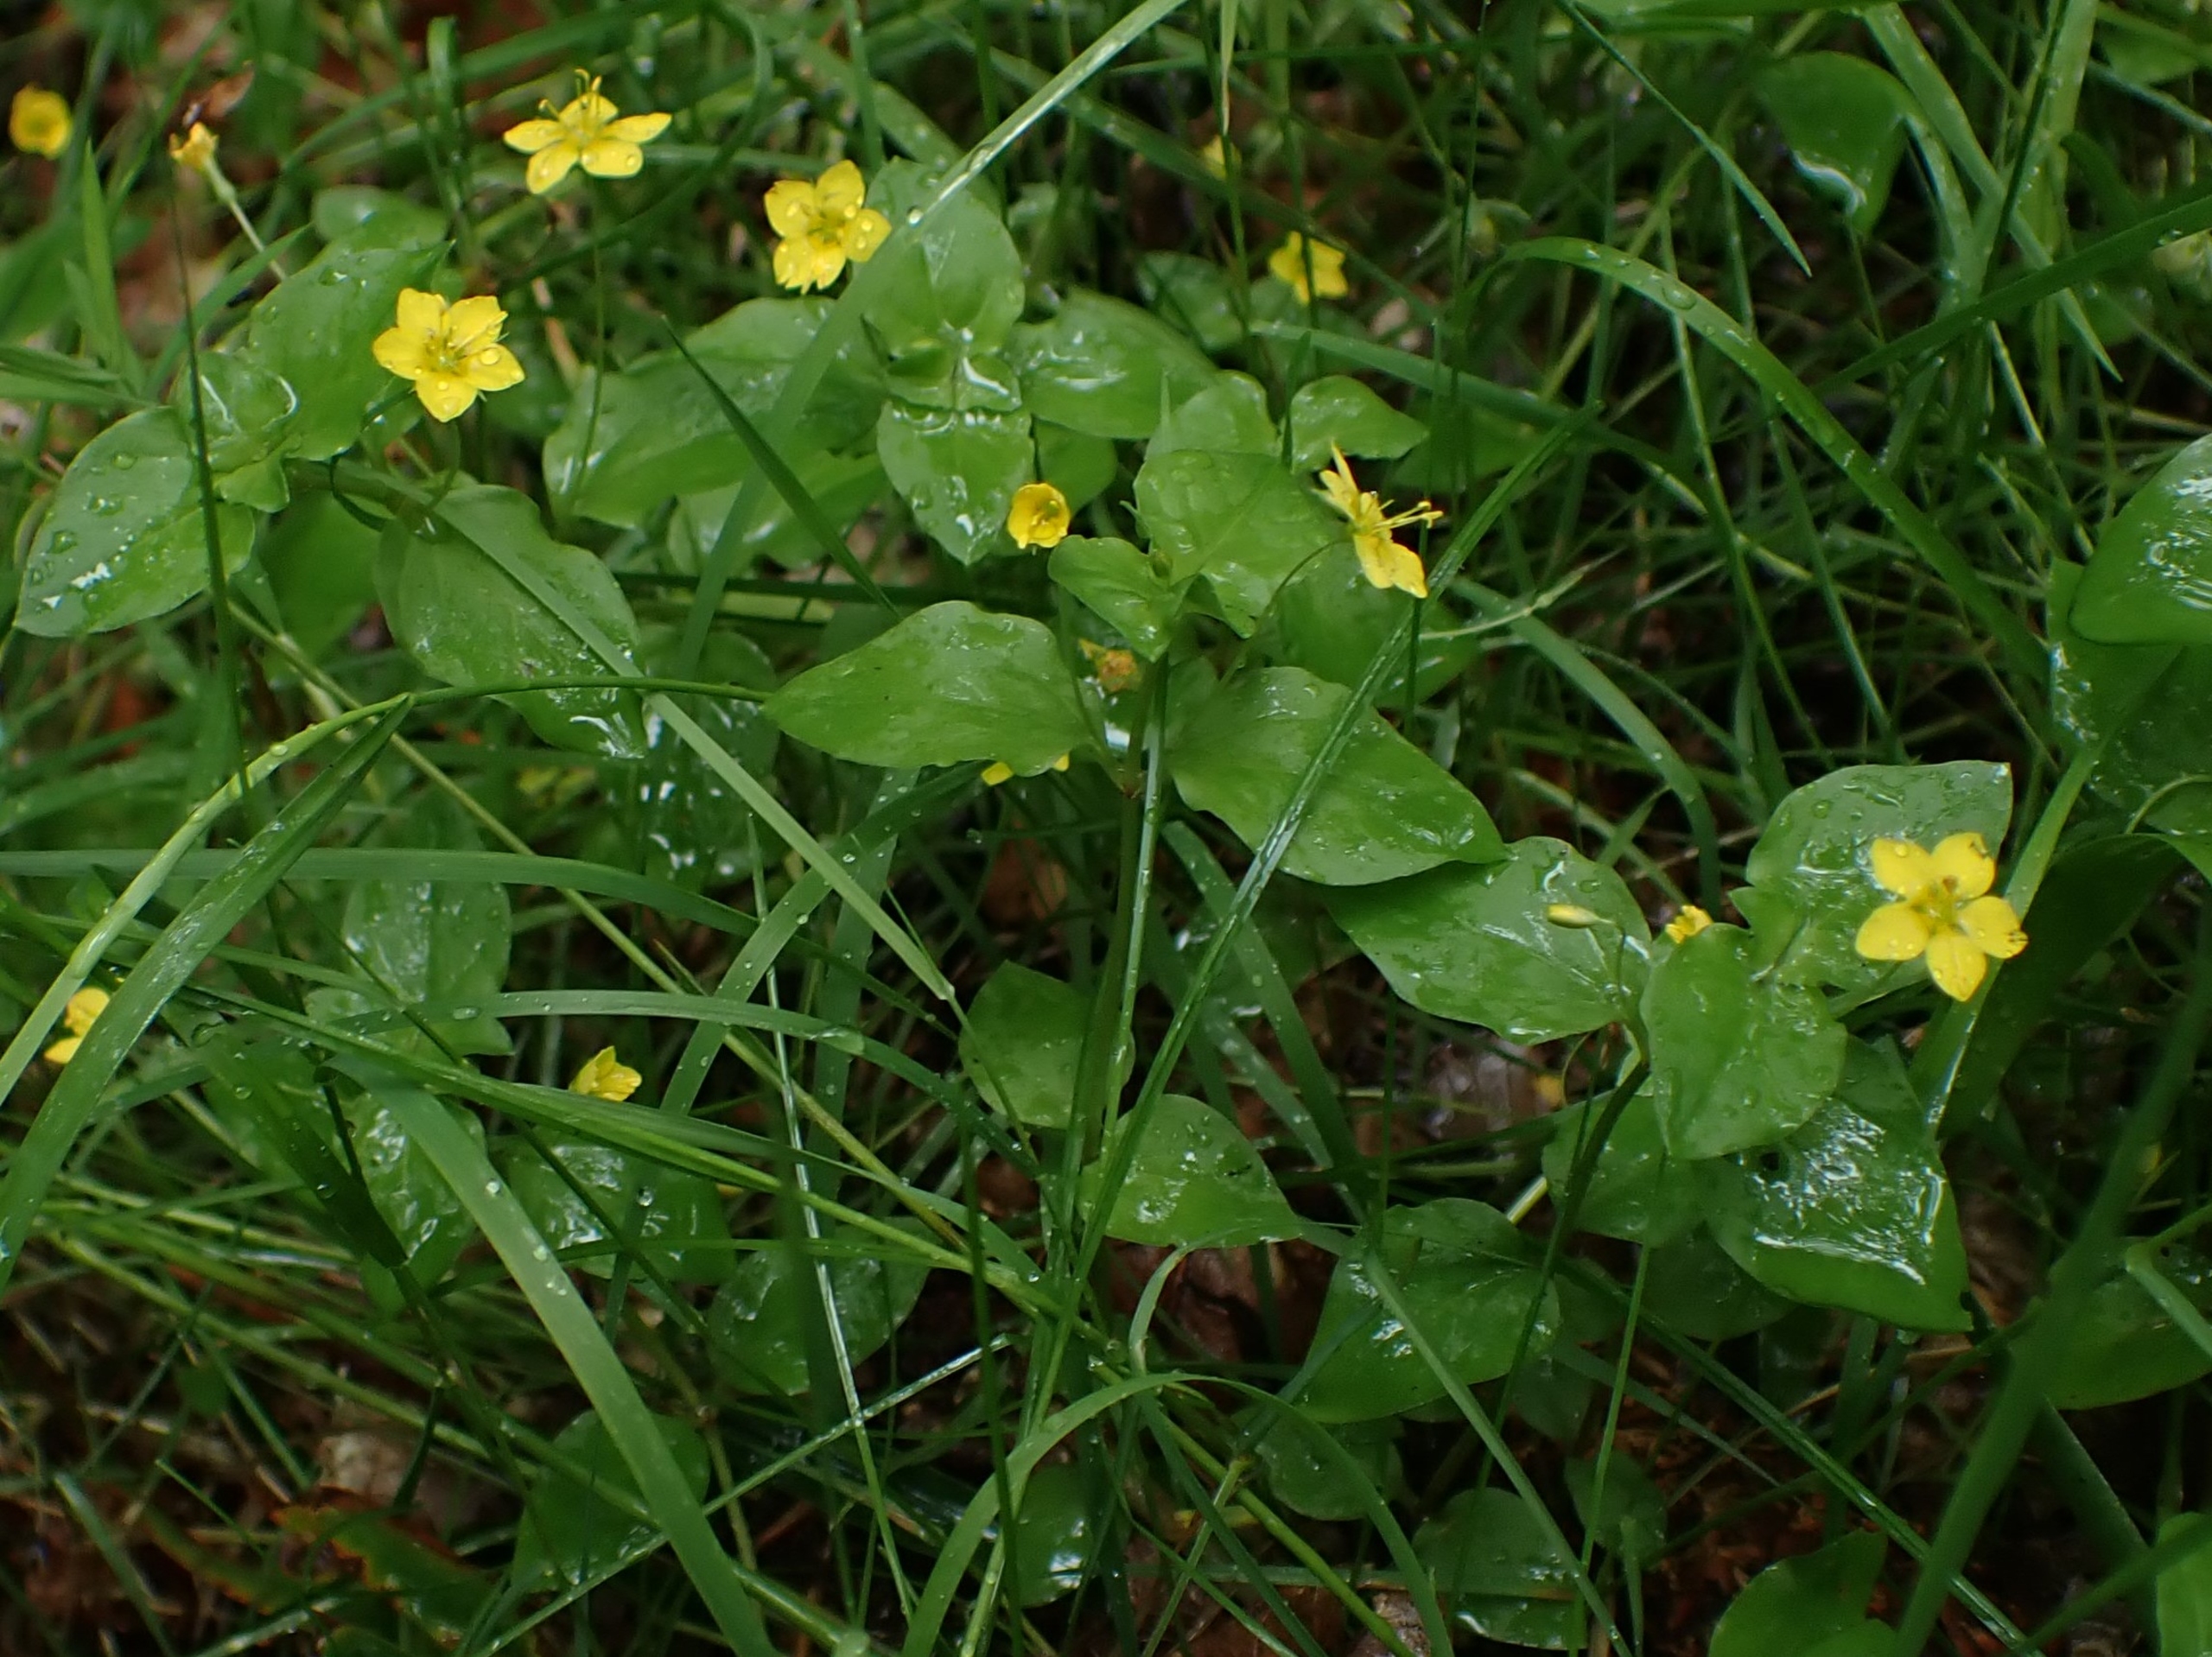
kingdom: Plantae
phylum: Tracheophyta
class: Magnoliopsida
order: Ericales
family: Primulaceae
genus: Lysimachia
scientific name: Lysimachia nemorum
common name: Lund-fredløs
